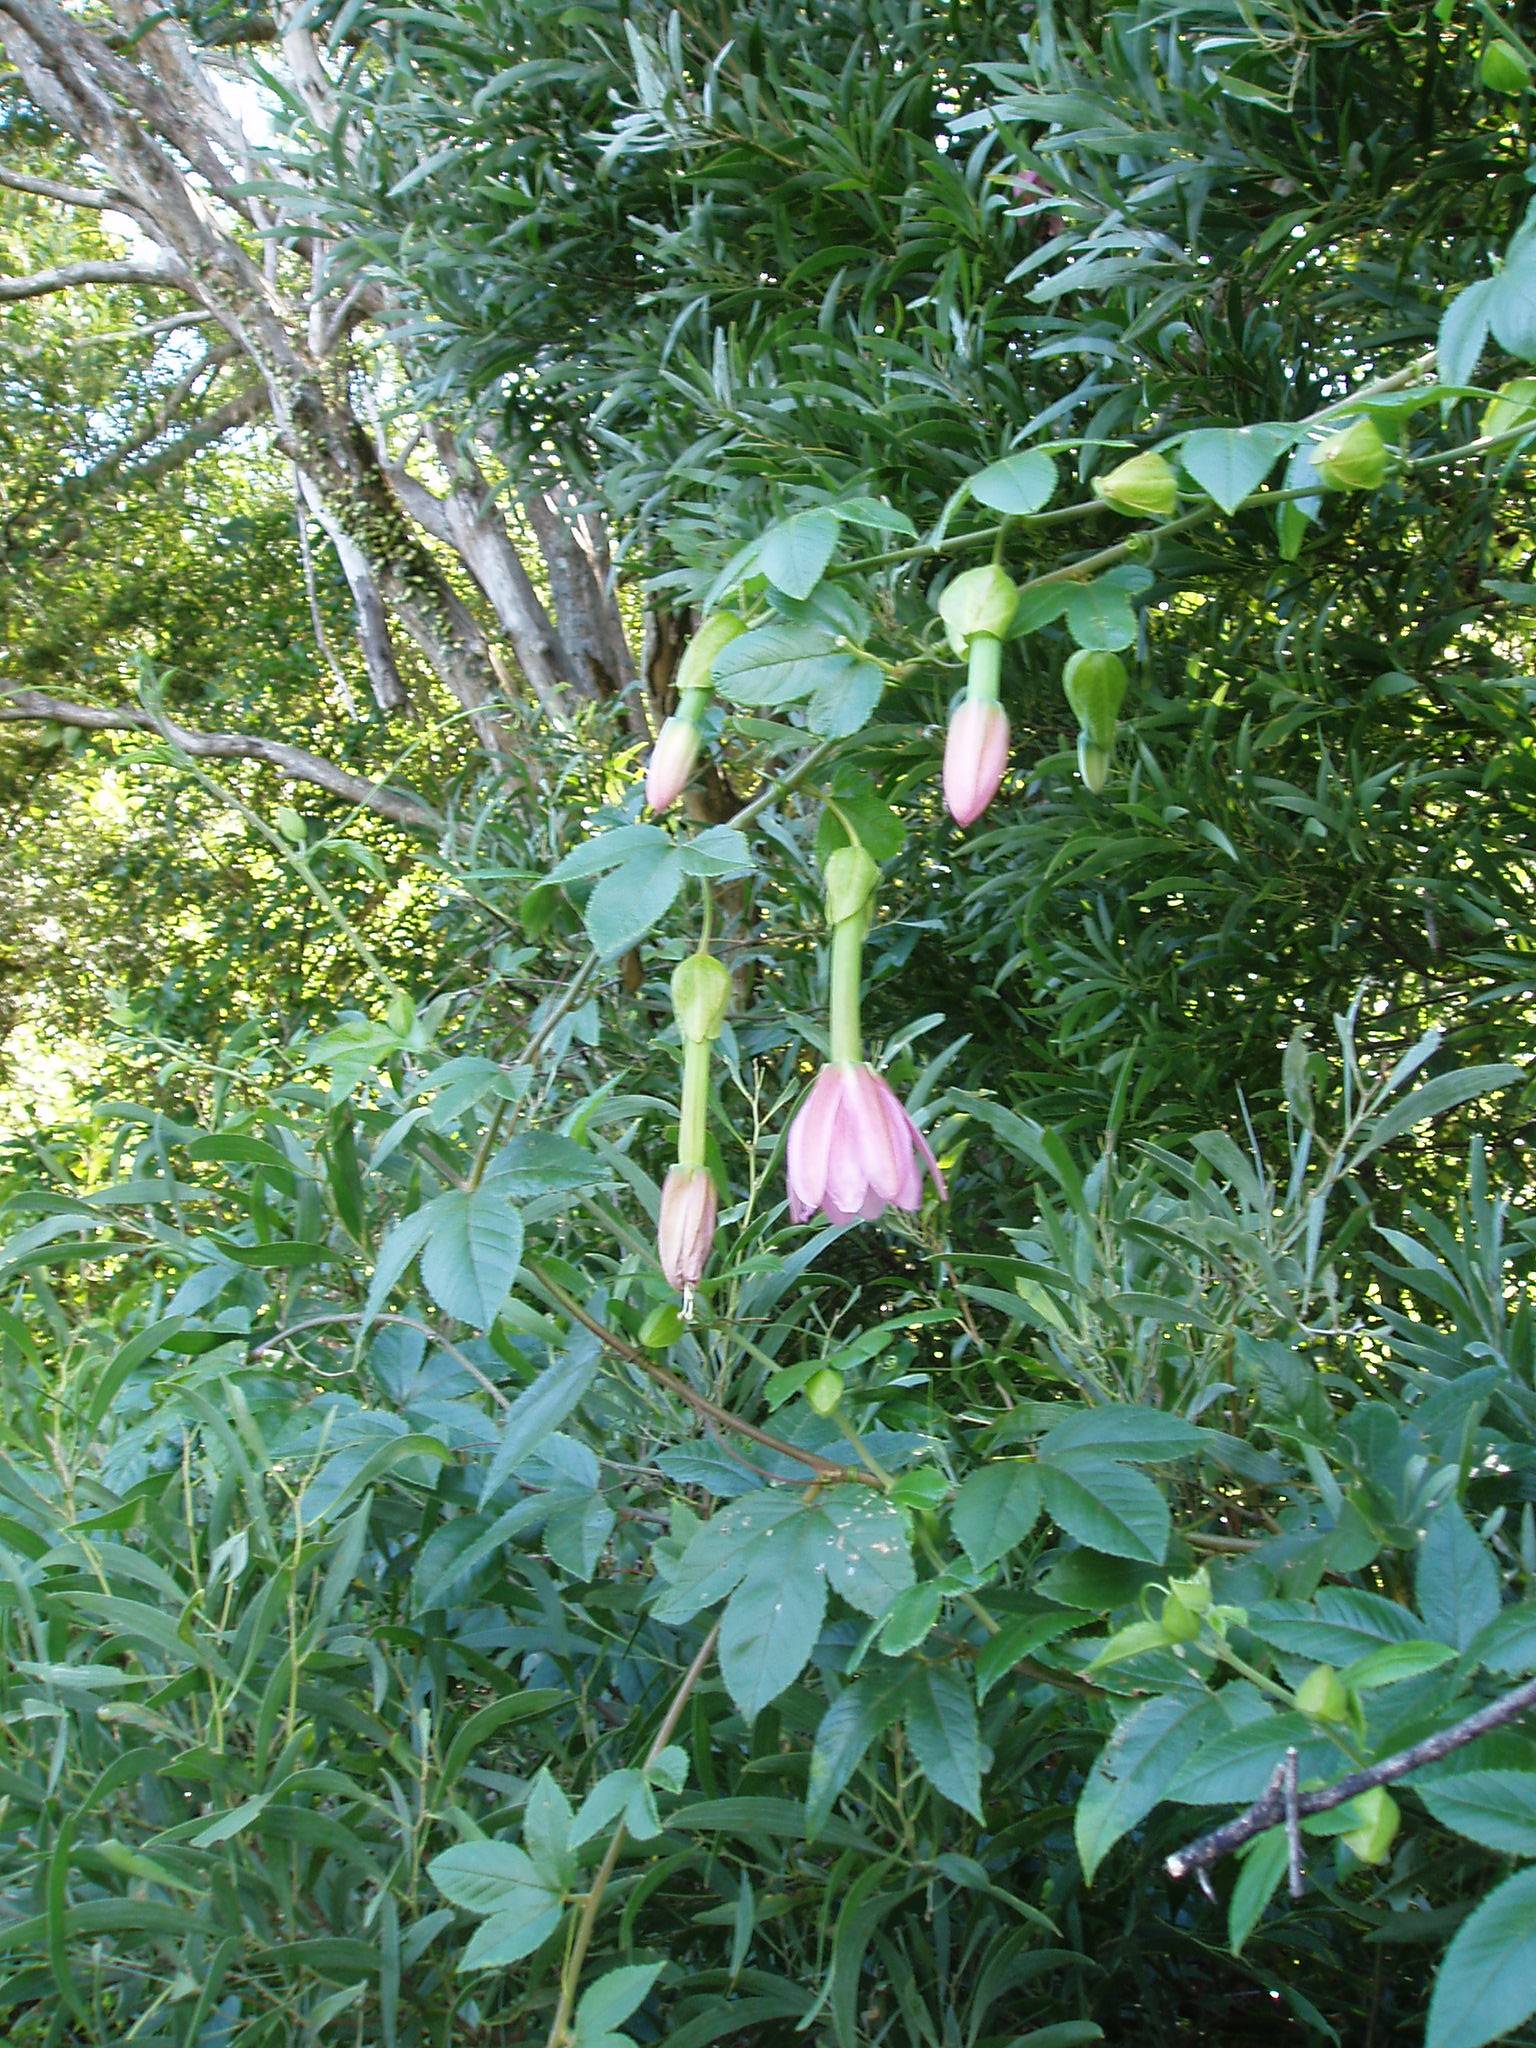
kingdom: Plantae
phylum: Tracheophyta
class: Magnoliopsida
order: Malpighiales
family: Passifloraceae
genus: Passiflora
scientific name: Passiflora tarminiana
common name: Banana poka
